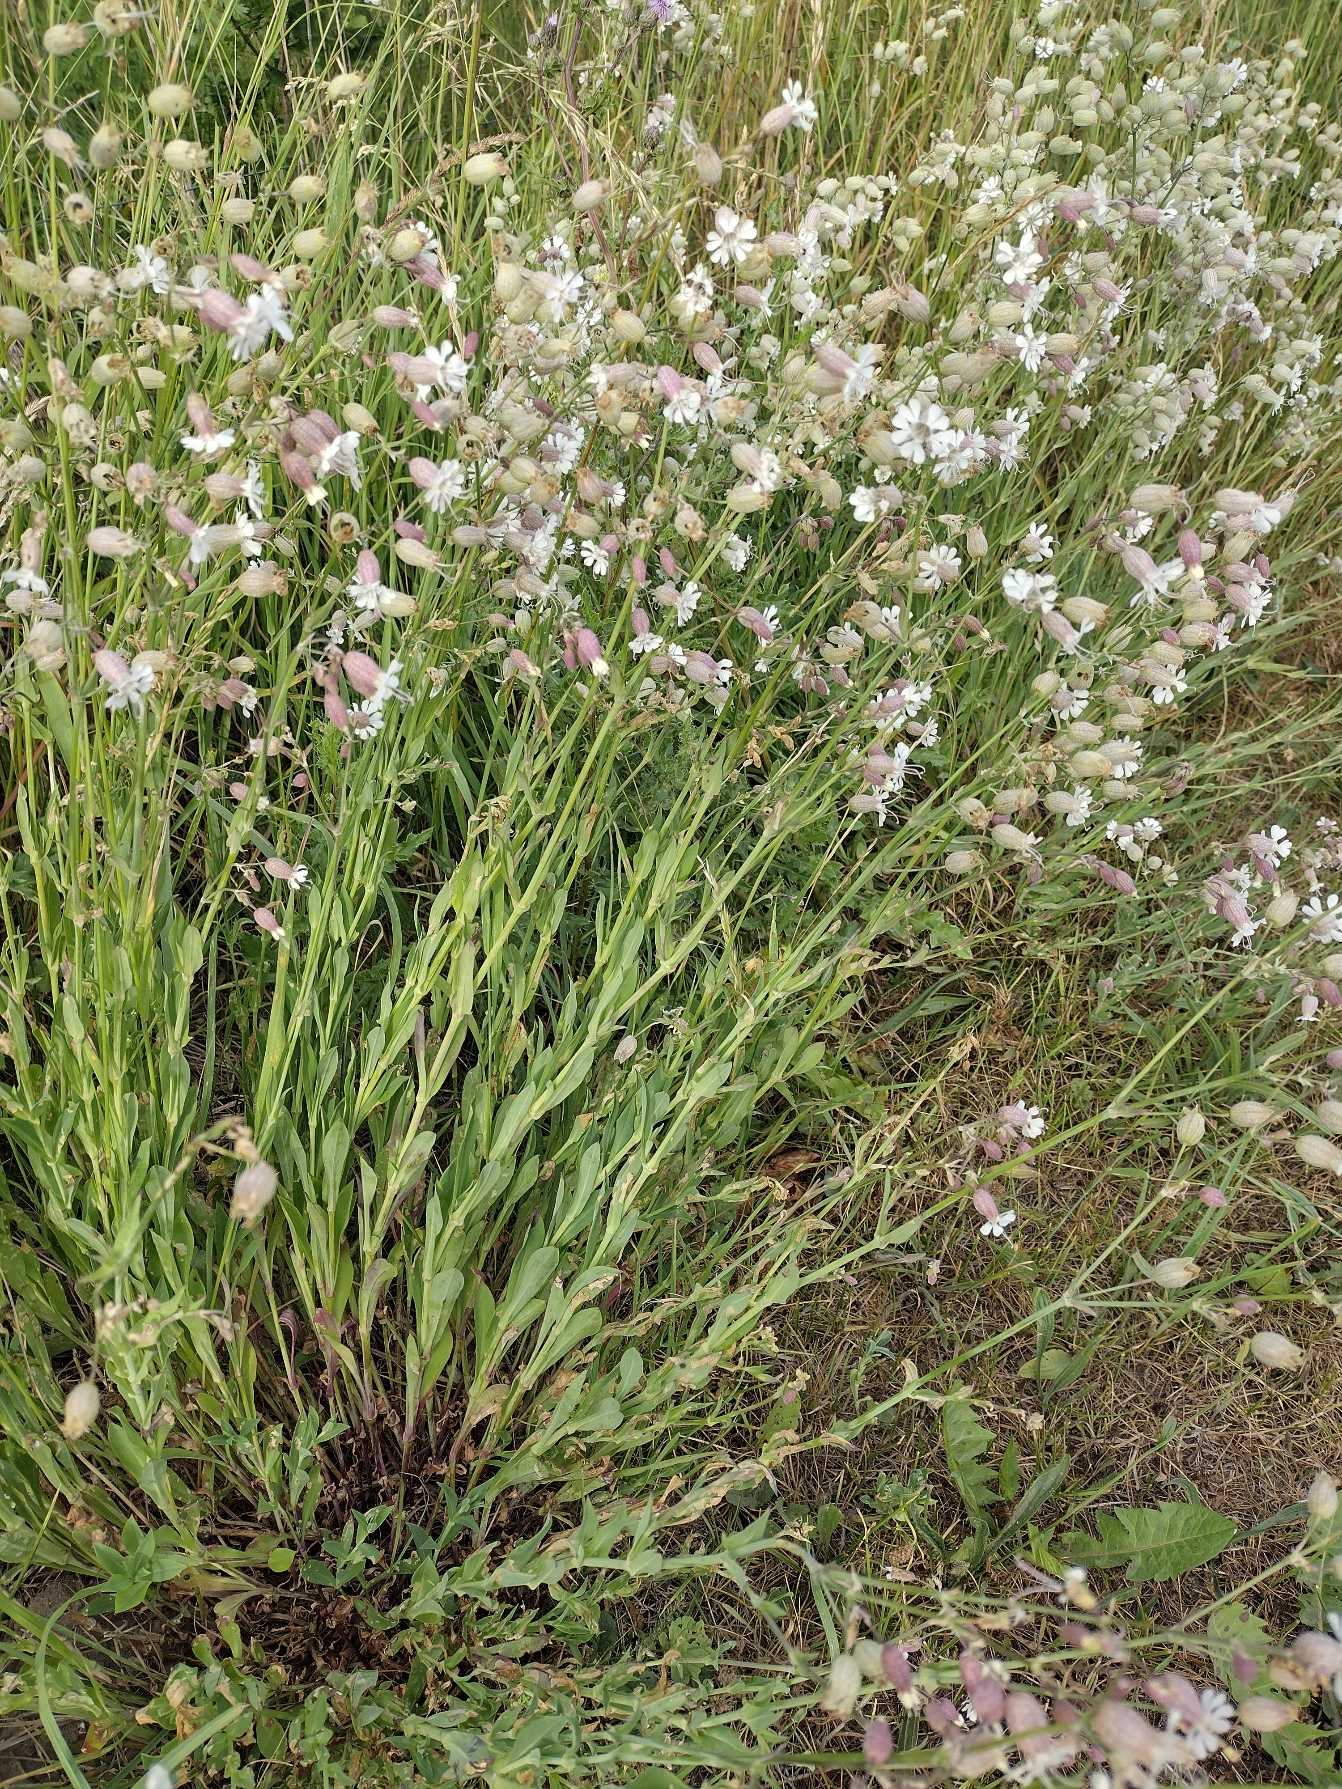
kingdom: Plantae
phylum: Tracheophyta
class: Magnoliopsida
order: Caryophyllales
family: Caryophyllaceae
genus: Silene
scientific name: Silene vulgaris
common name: Blæresmælde
